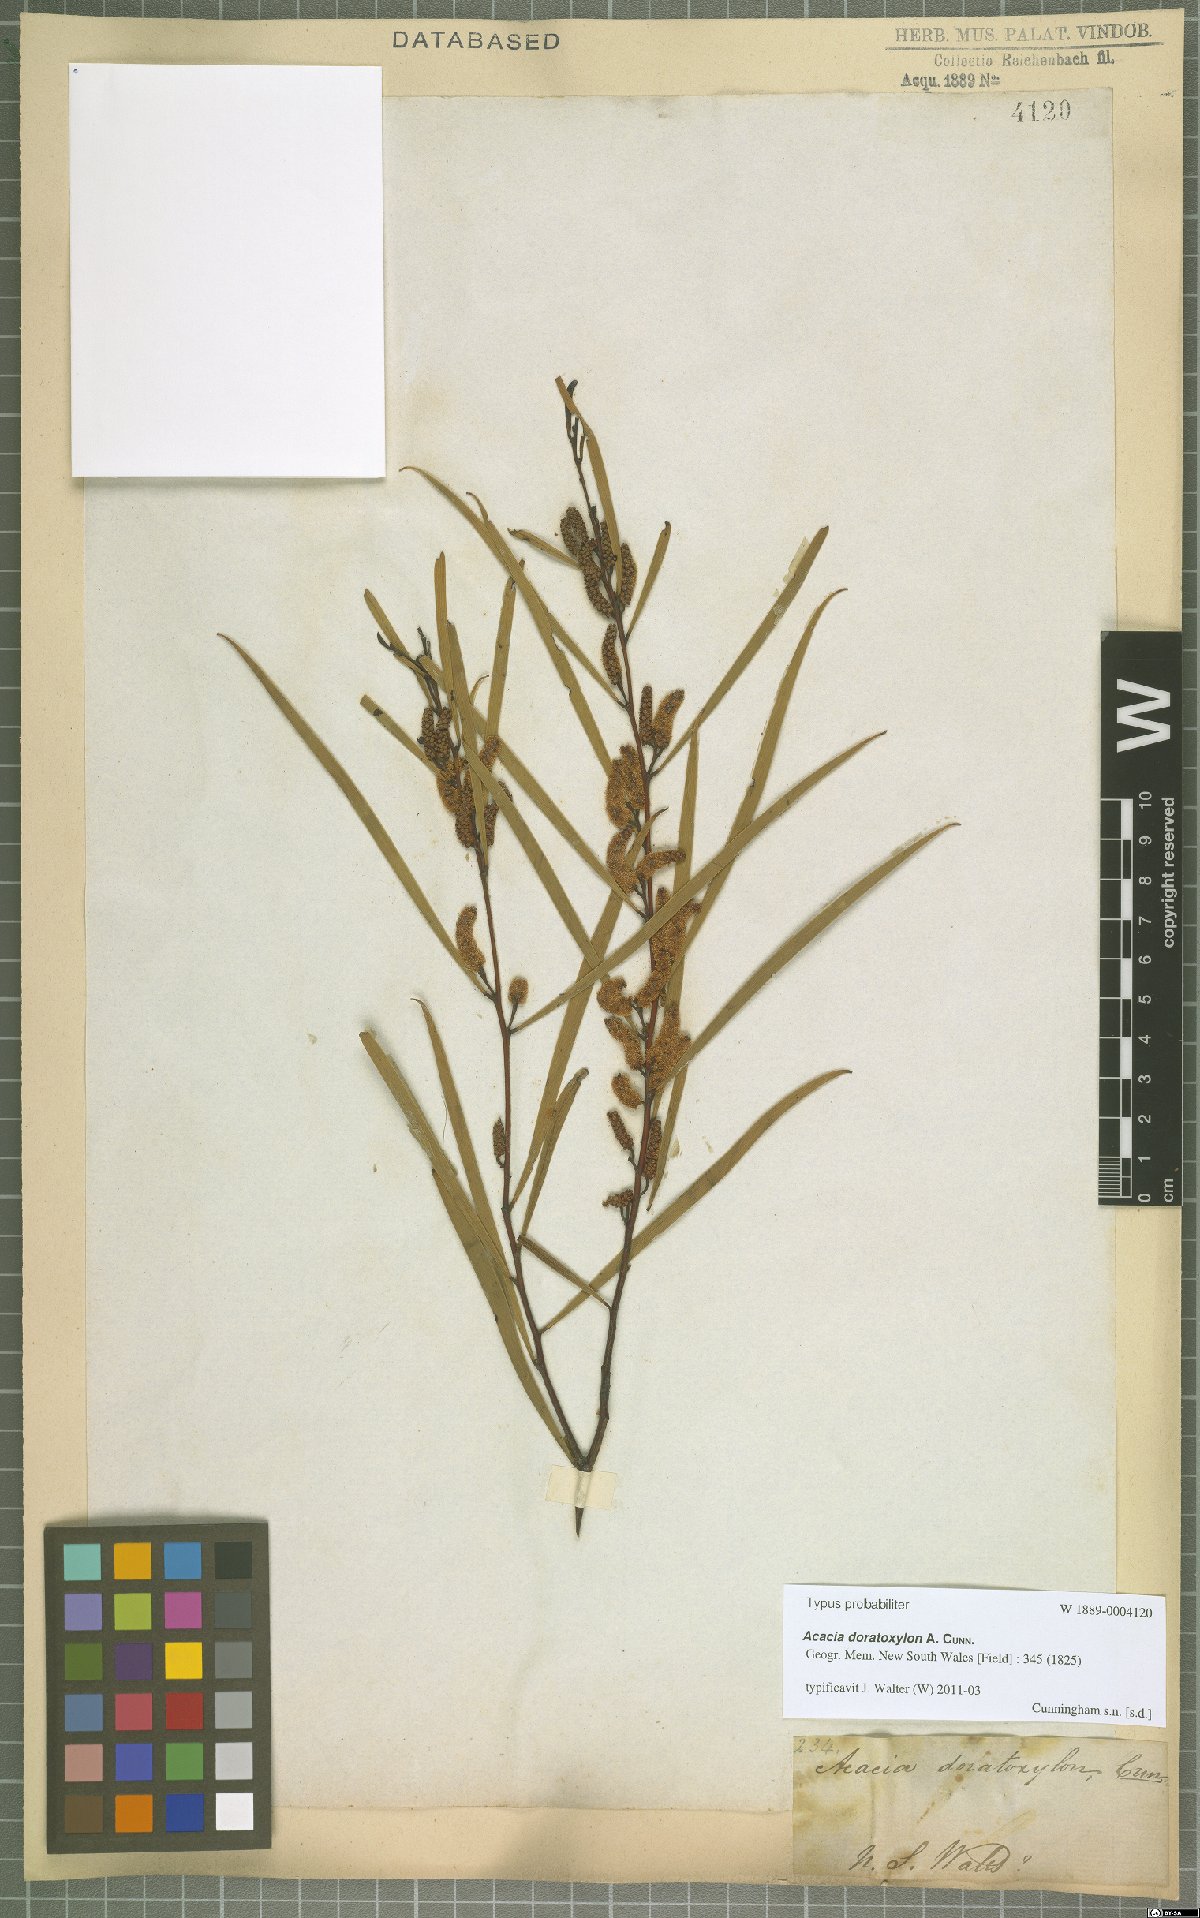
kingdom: Plantae
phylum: Tracheophyta
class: Magnoliopsida
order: Fabales
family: Fabaceae
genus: Acacia
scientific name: Acacia doratoxylon
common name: Lancewood
